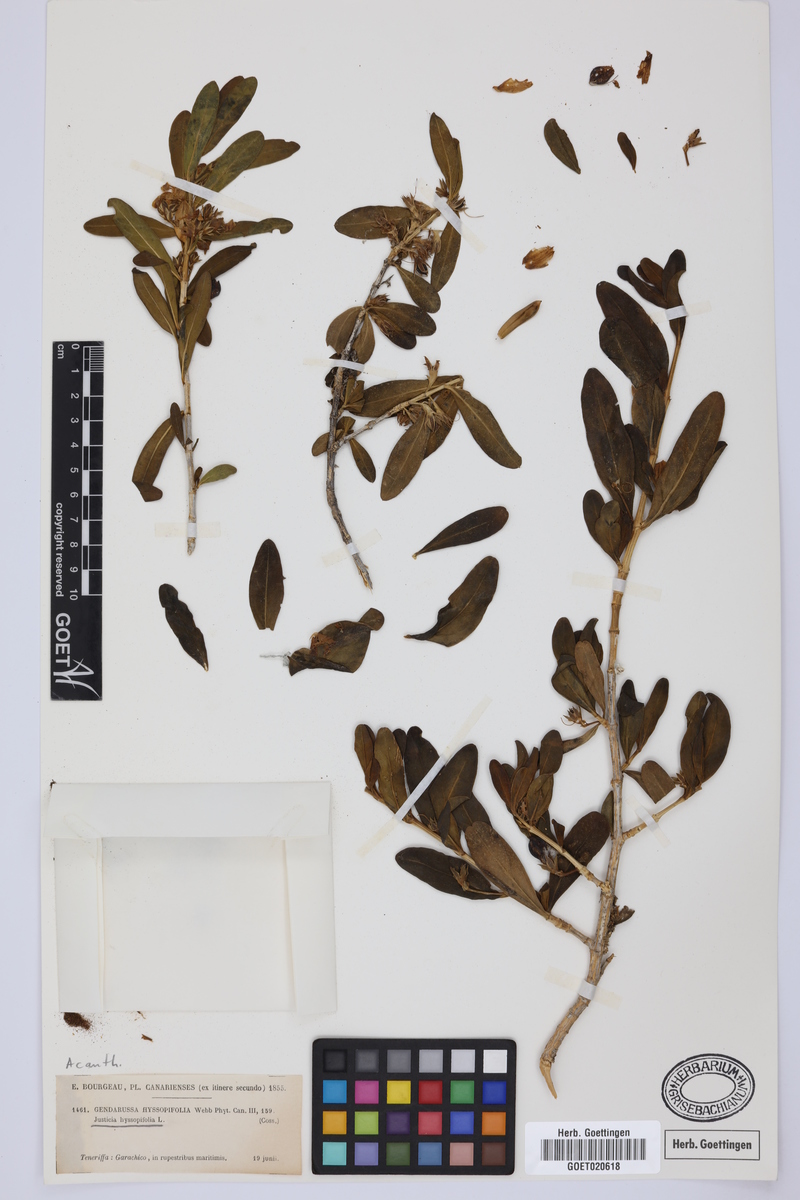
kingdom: Plantae
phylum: Tracheophyta
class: Magnoliopsida
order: Lamiales
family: Acanthaceae
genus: Justicia
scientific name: Justicia hyssopifolia
